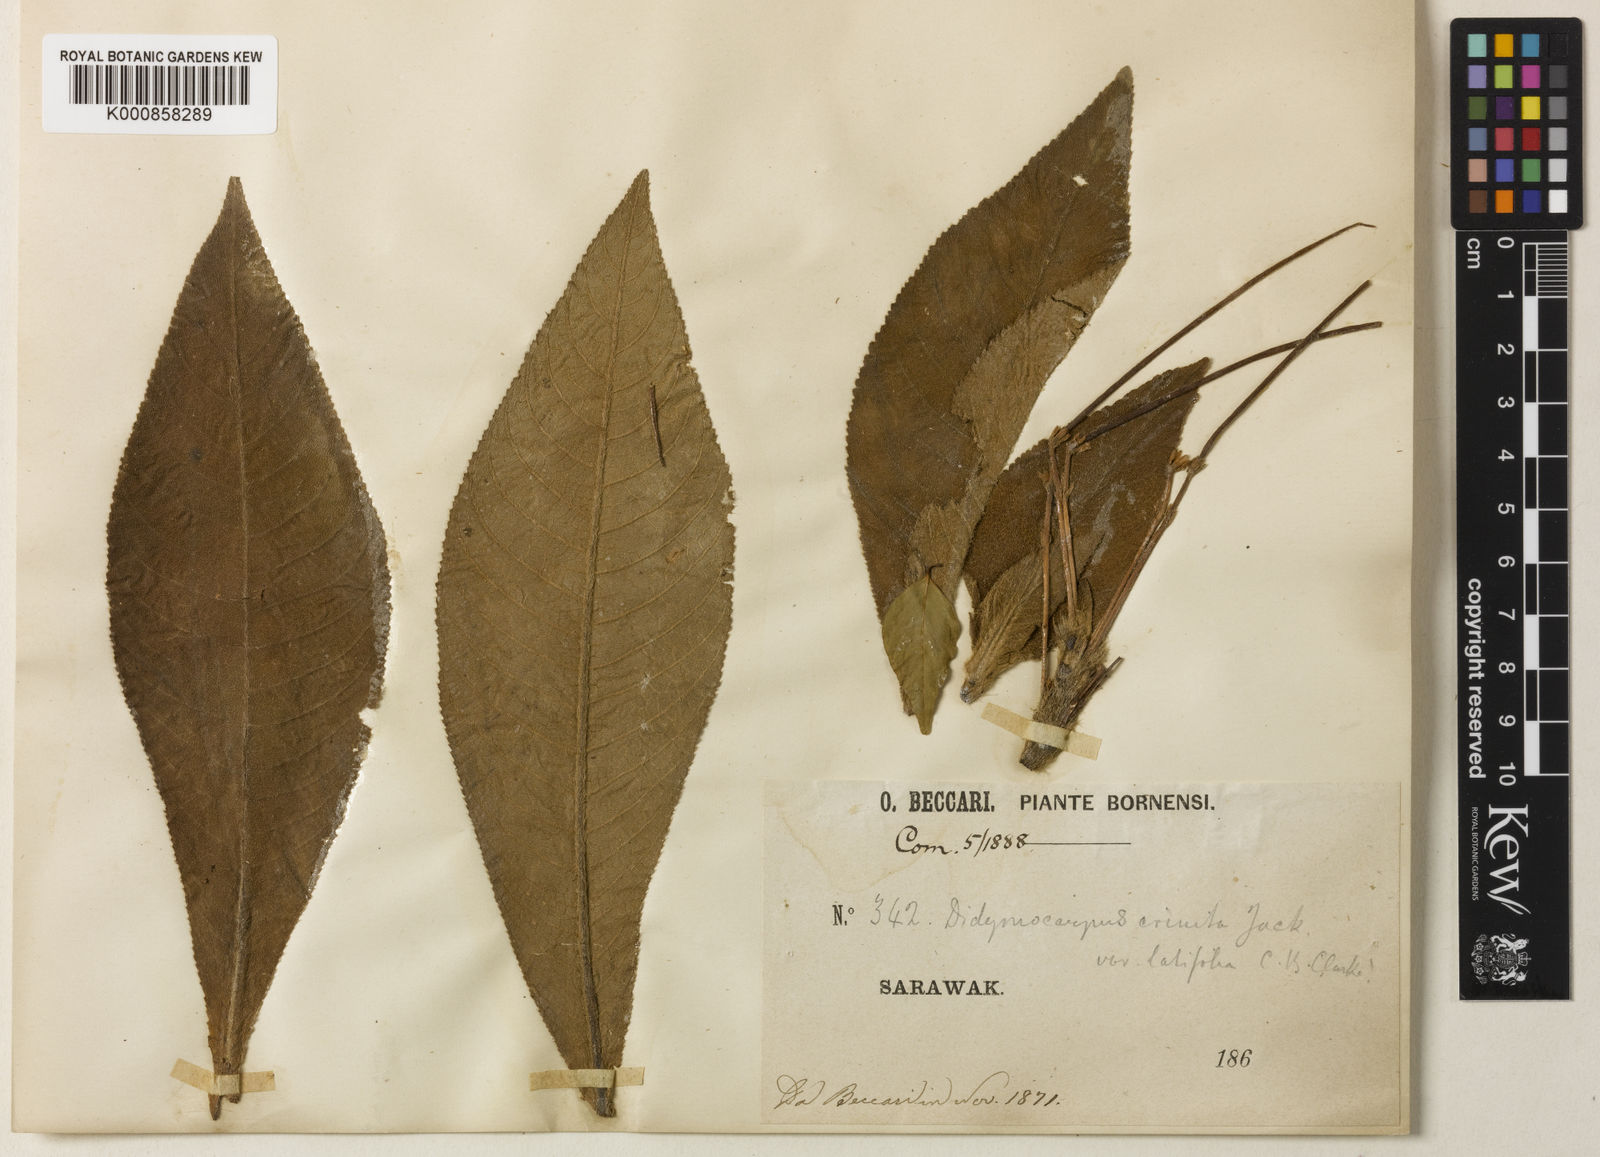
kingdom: Plantae
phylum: Tracheophyta
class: Magnoliopsida
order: Lamiales
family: Gesneriaceae
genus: Codonoboea
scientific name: Codonoboea crinita
